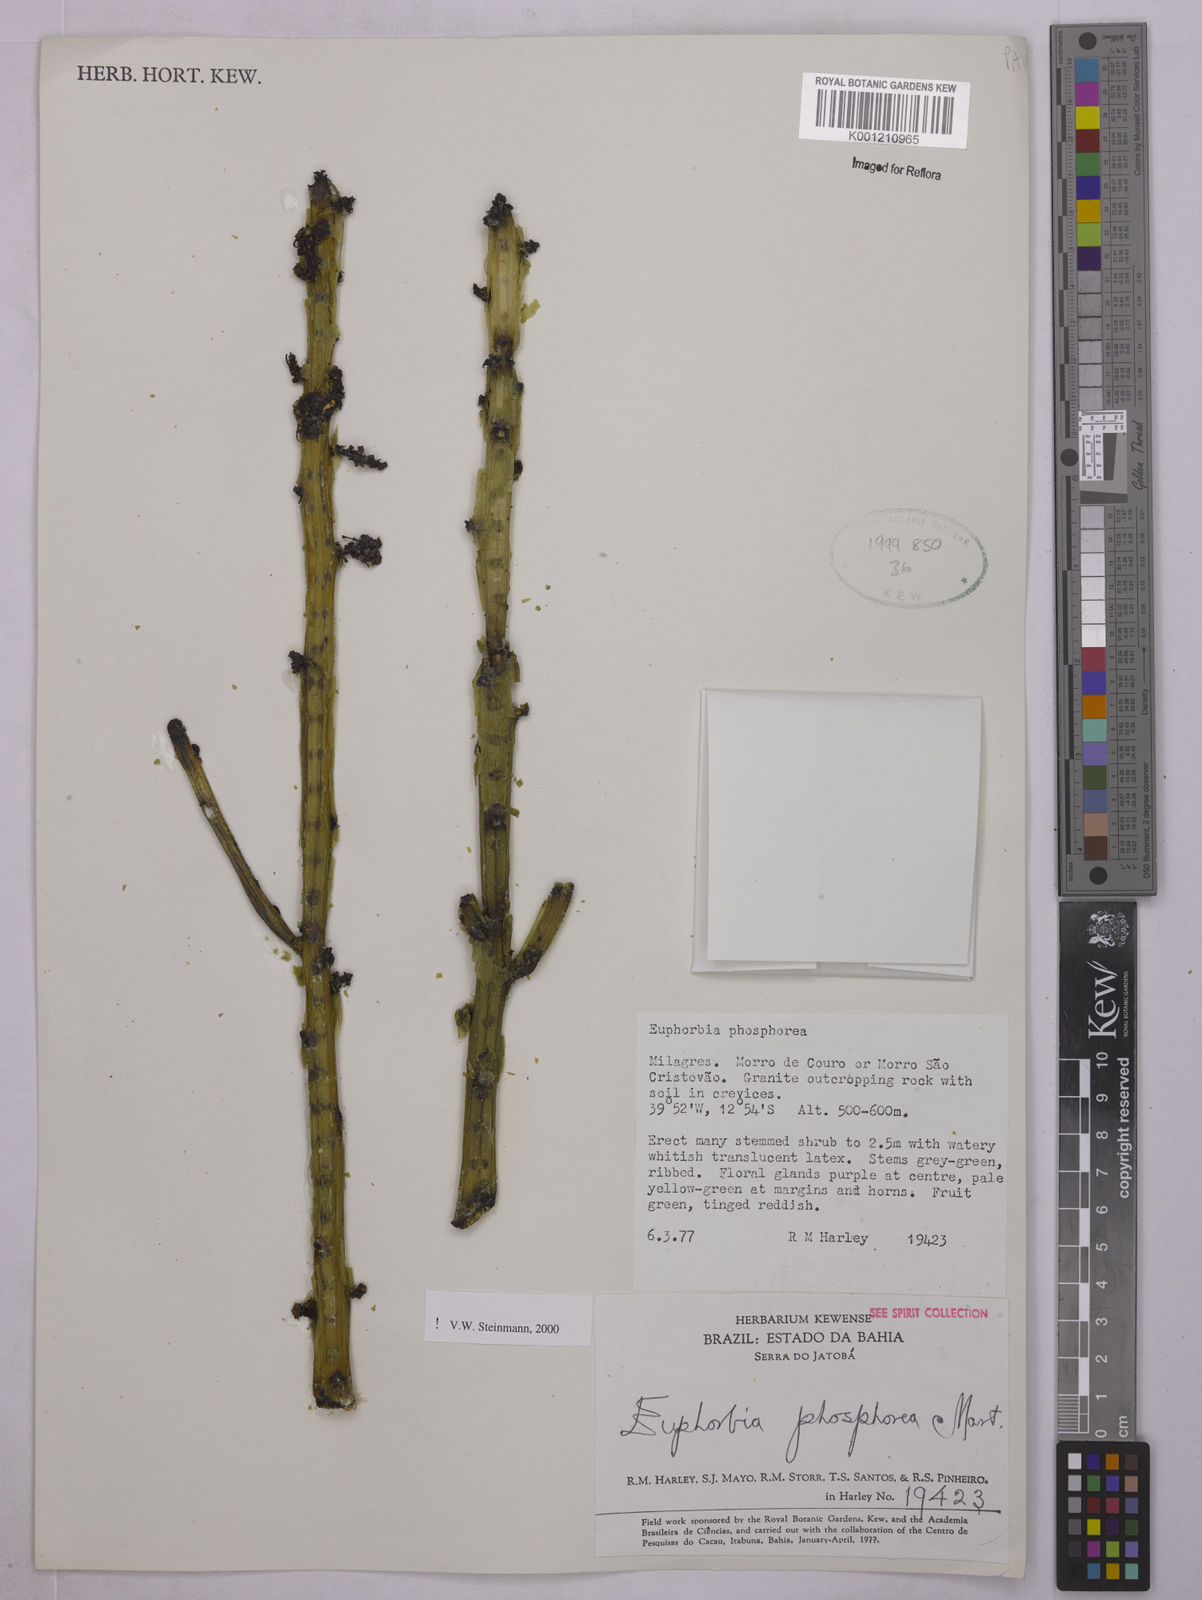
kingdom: Plantae
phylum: Tracheophyta
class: Magnoliopsida
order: Malpighiales
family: Euphorbiaceae
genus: Euphorbia
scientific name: Euphorbia phosphorea
